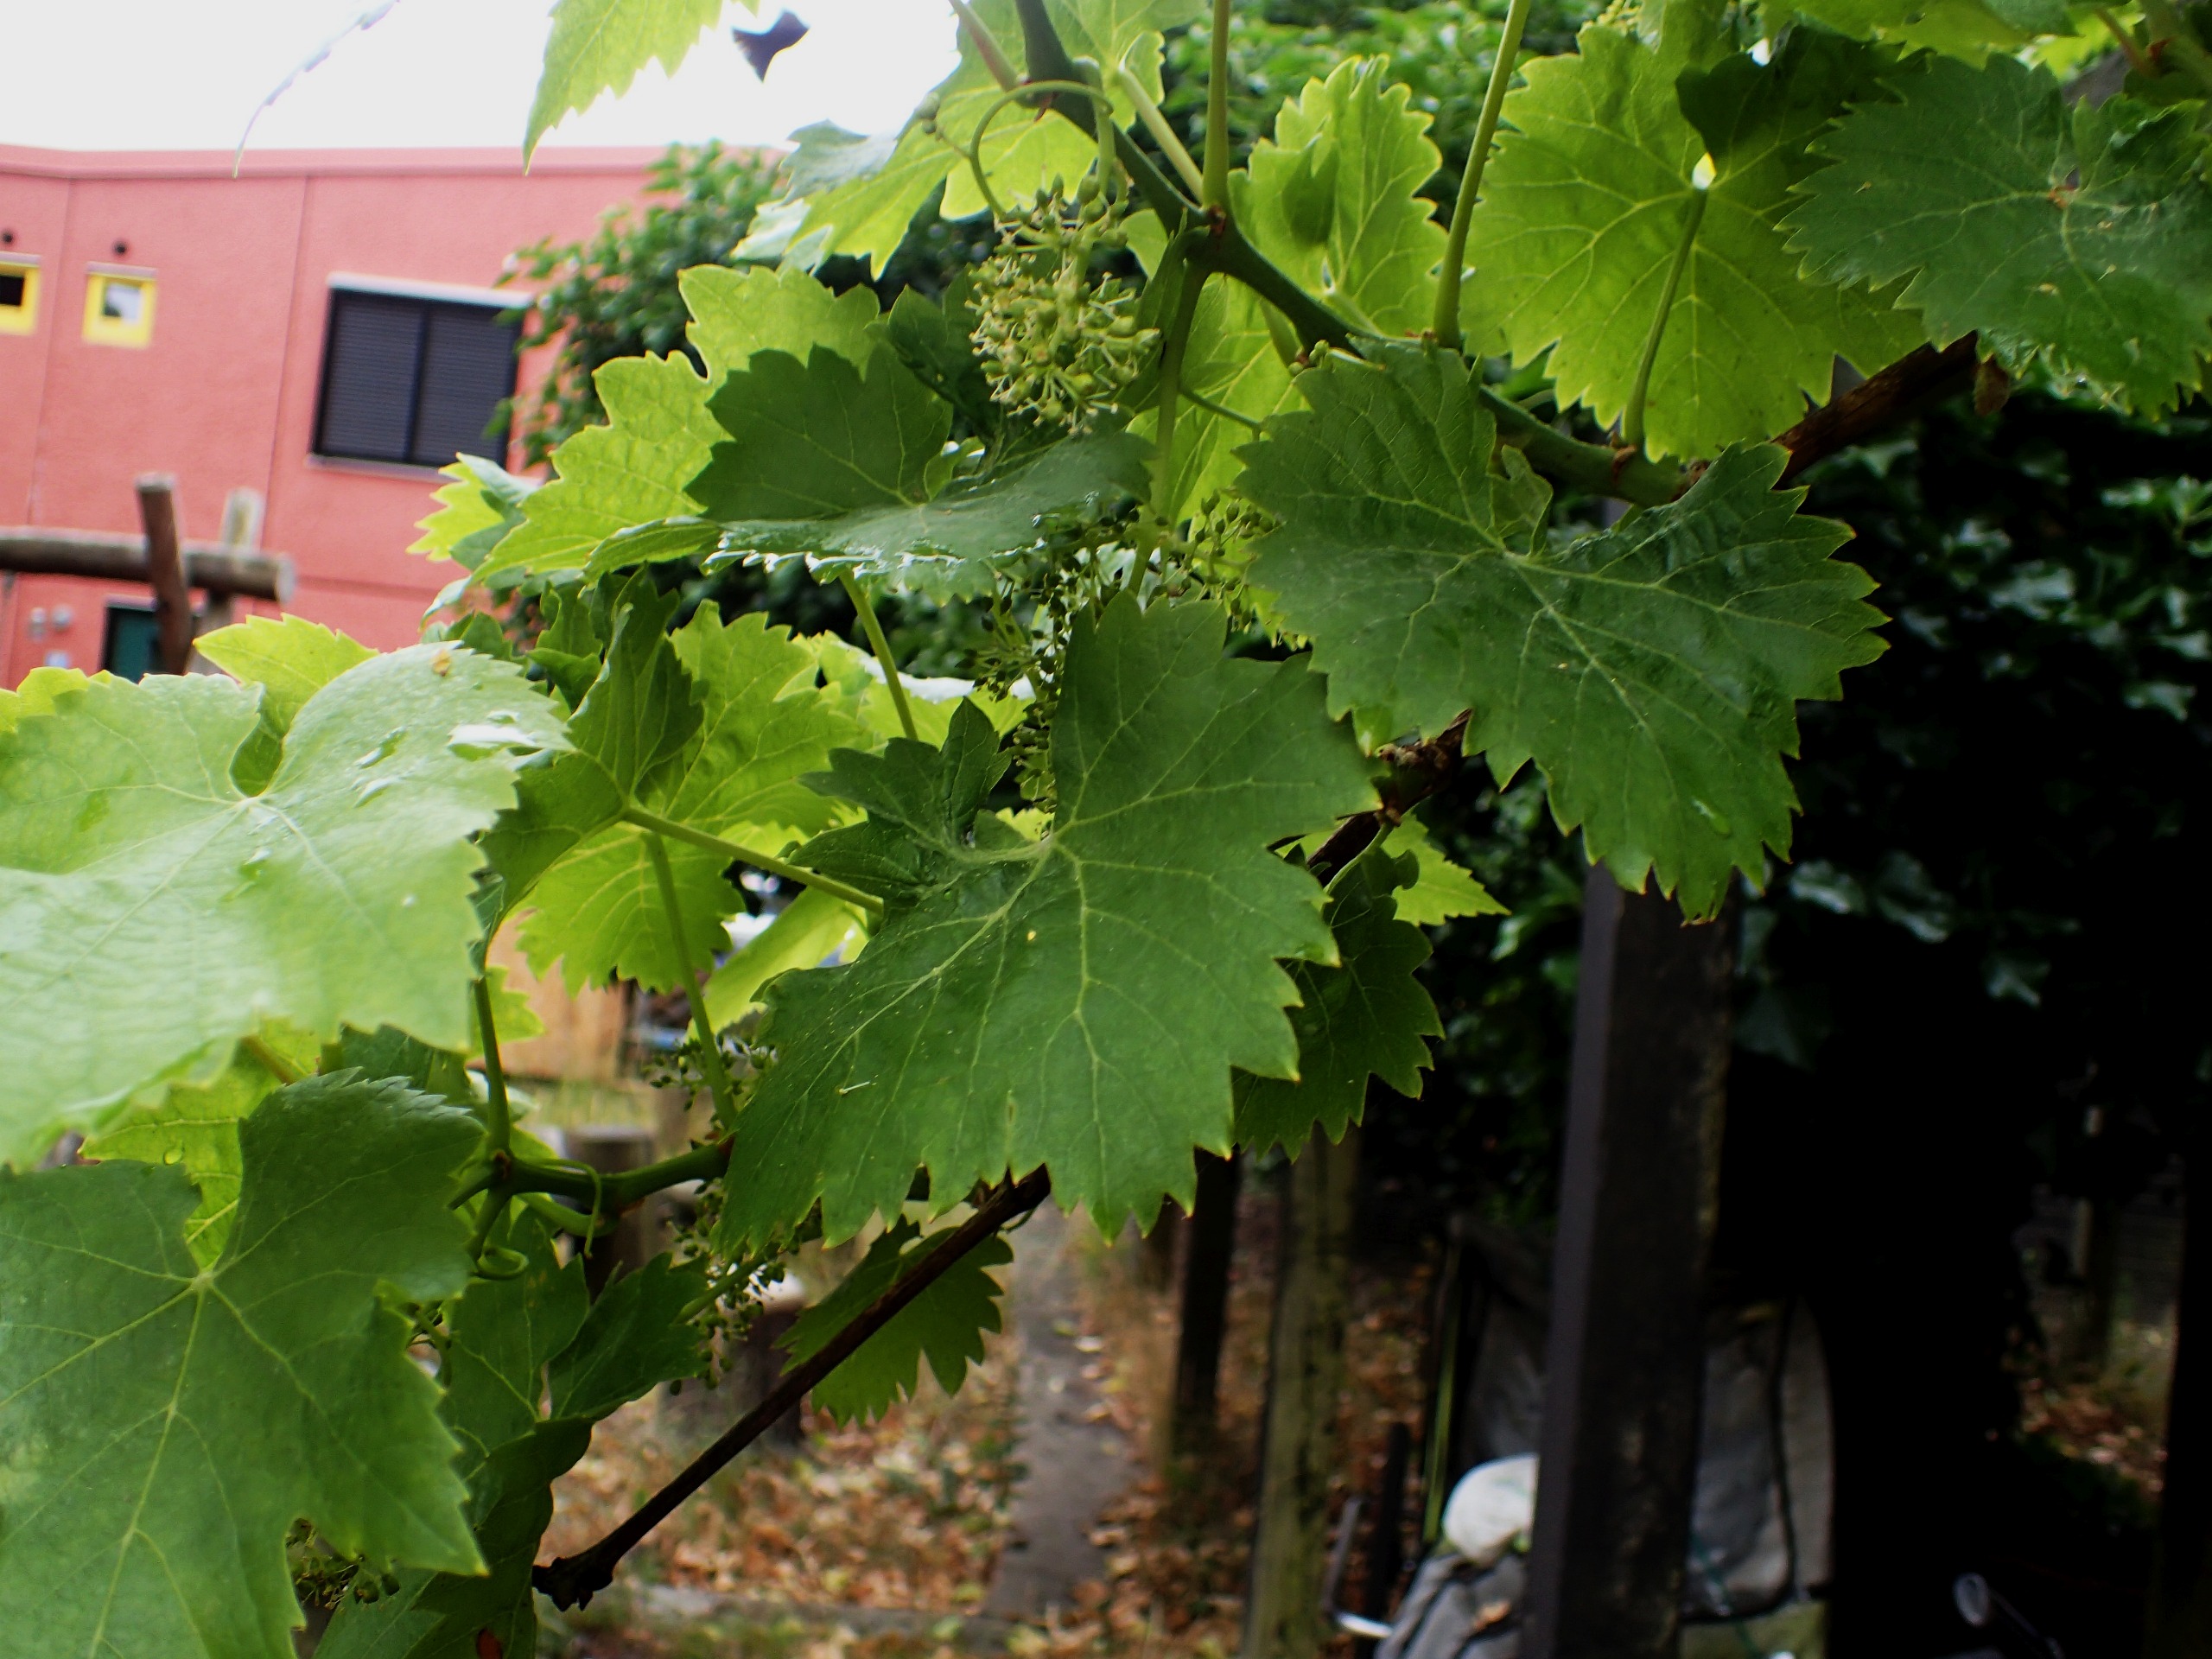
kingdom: Plantae
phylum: Tracheophyta
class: Magnoliopsida
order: Vitales
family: Vitaceae
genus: Vitis
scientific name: Vitis vinifera
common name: Almindelig vin
